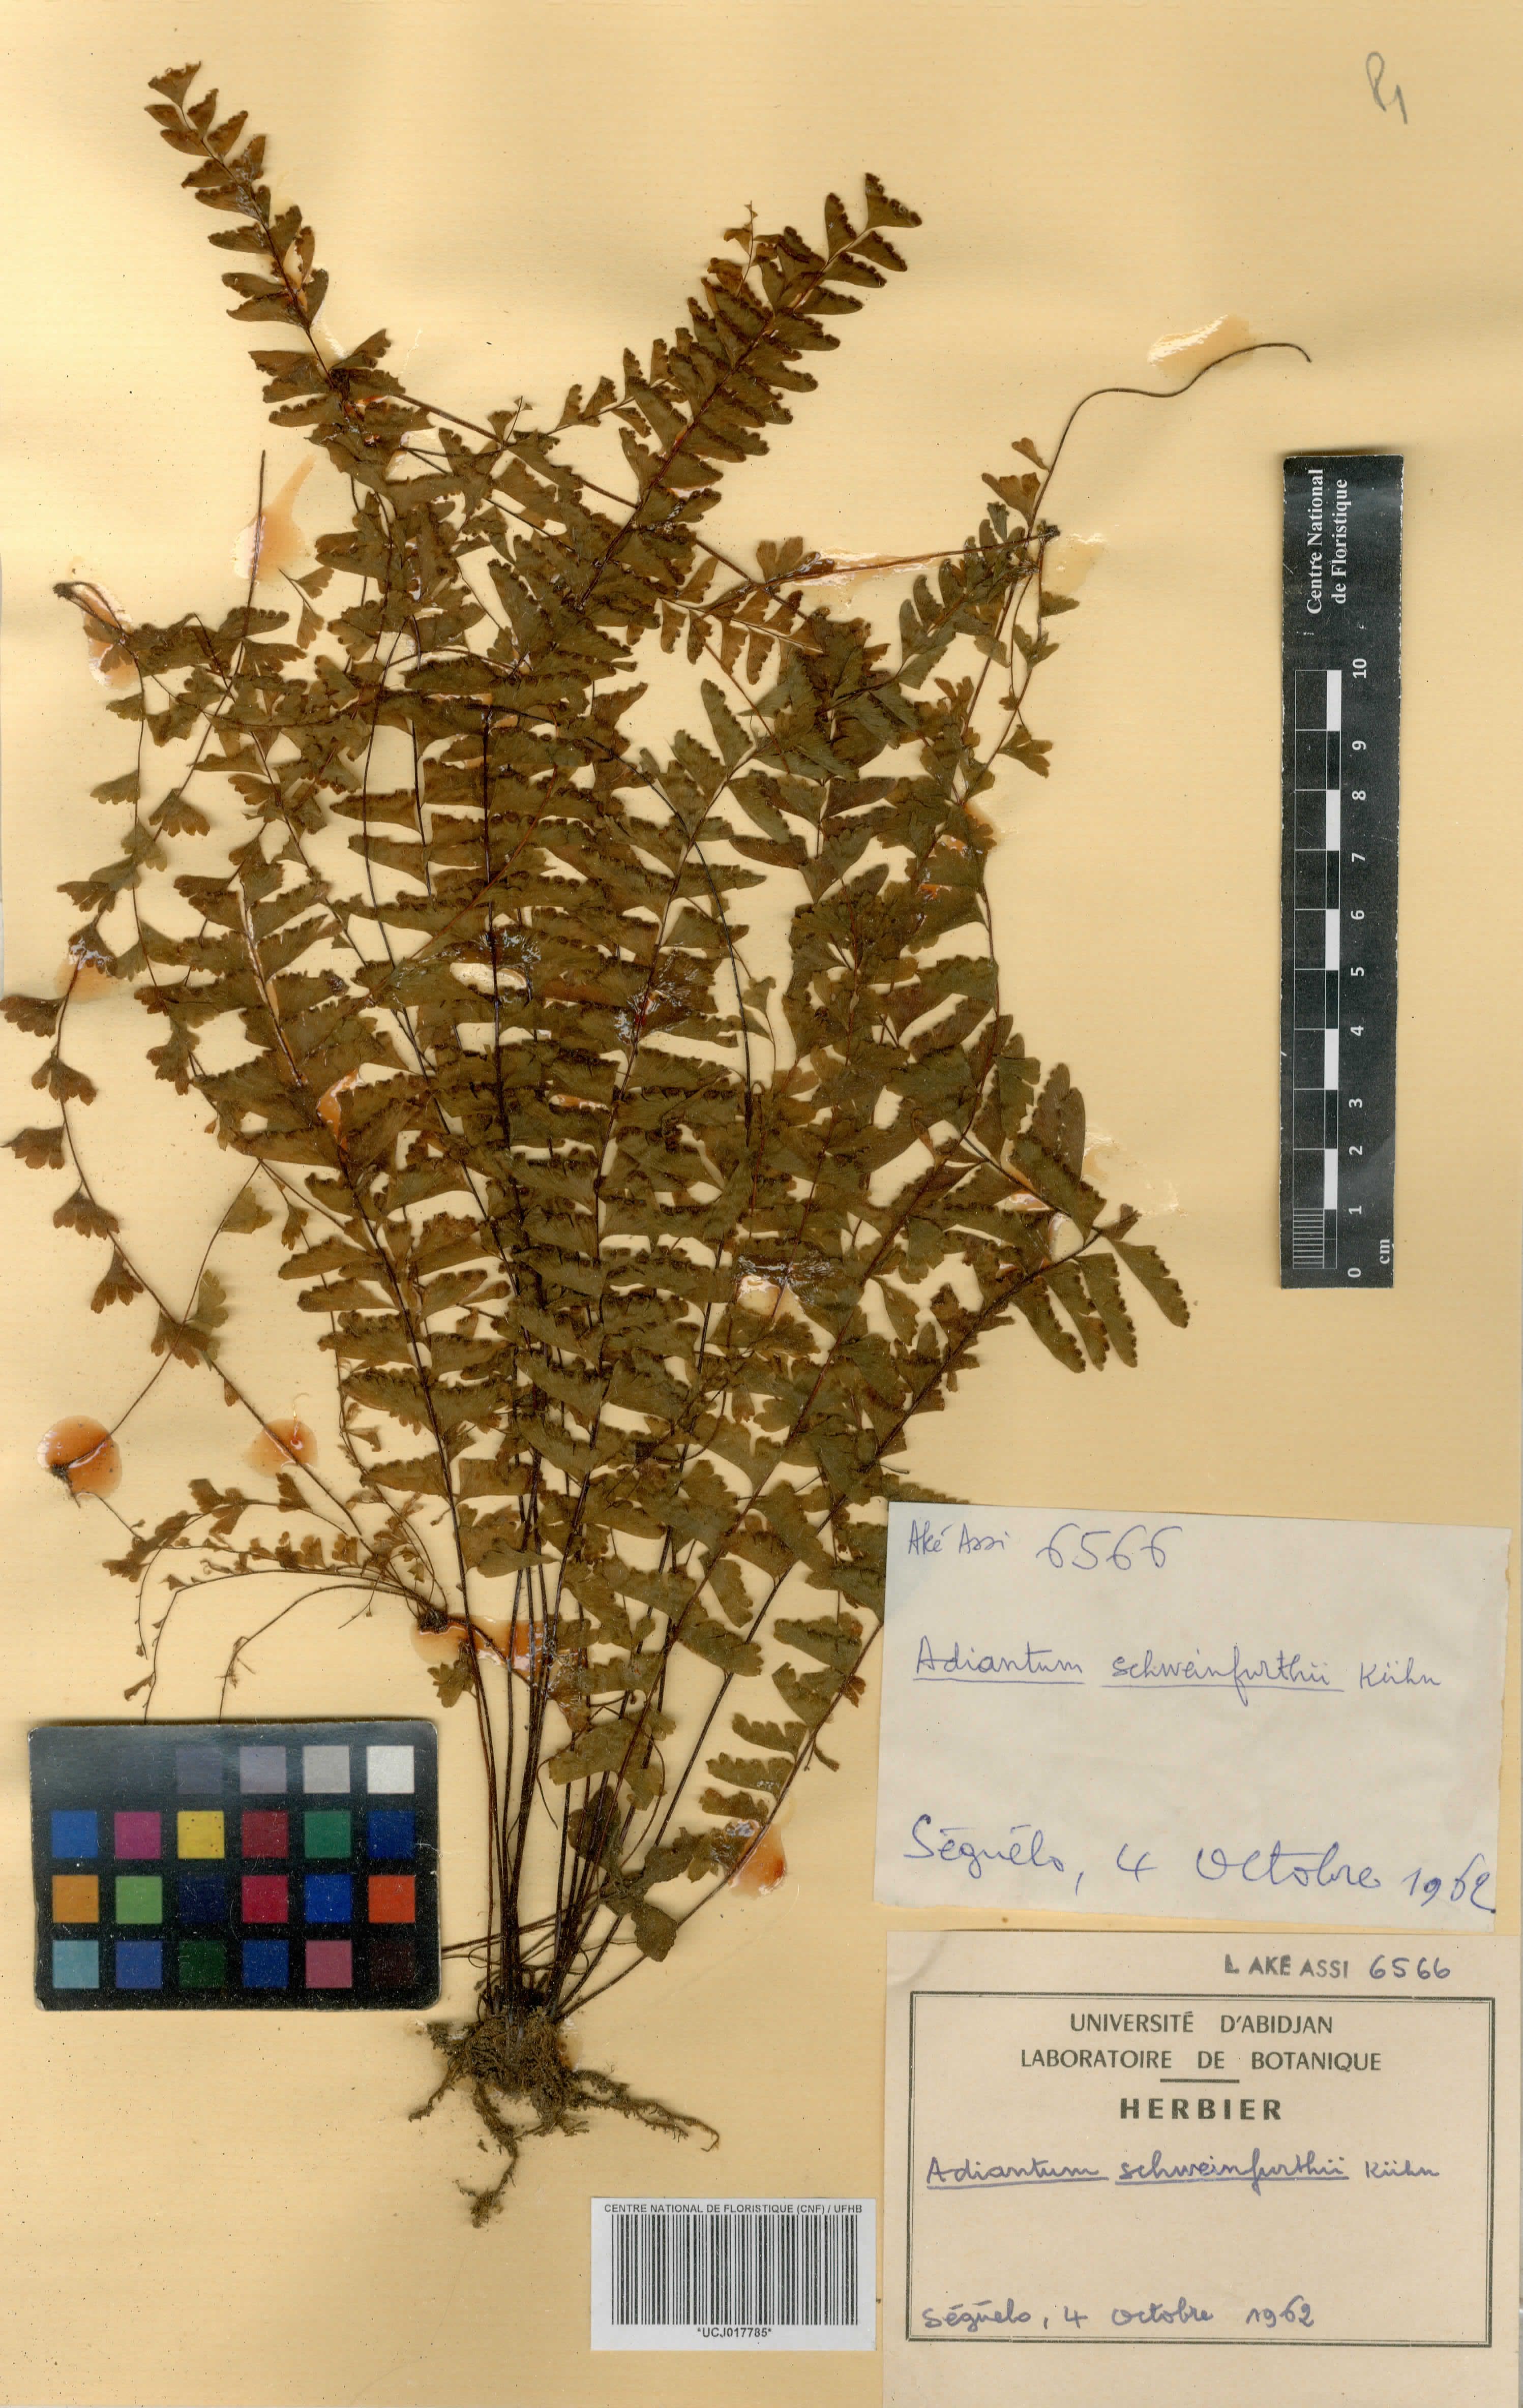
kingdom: Plantae
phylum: Tracheophyta
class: Polypodiopsida
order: Polypodiales
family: Pteridaceae
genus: Adiantum
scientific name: Adiantum schweinfurthii
